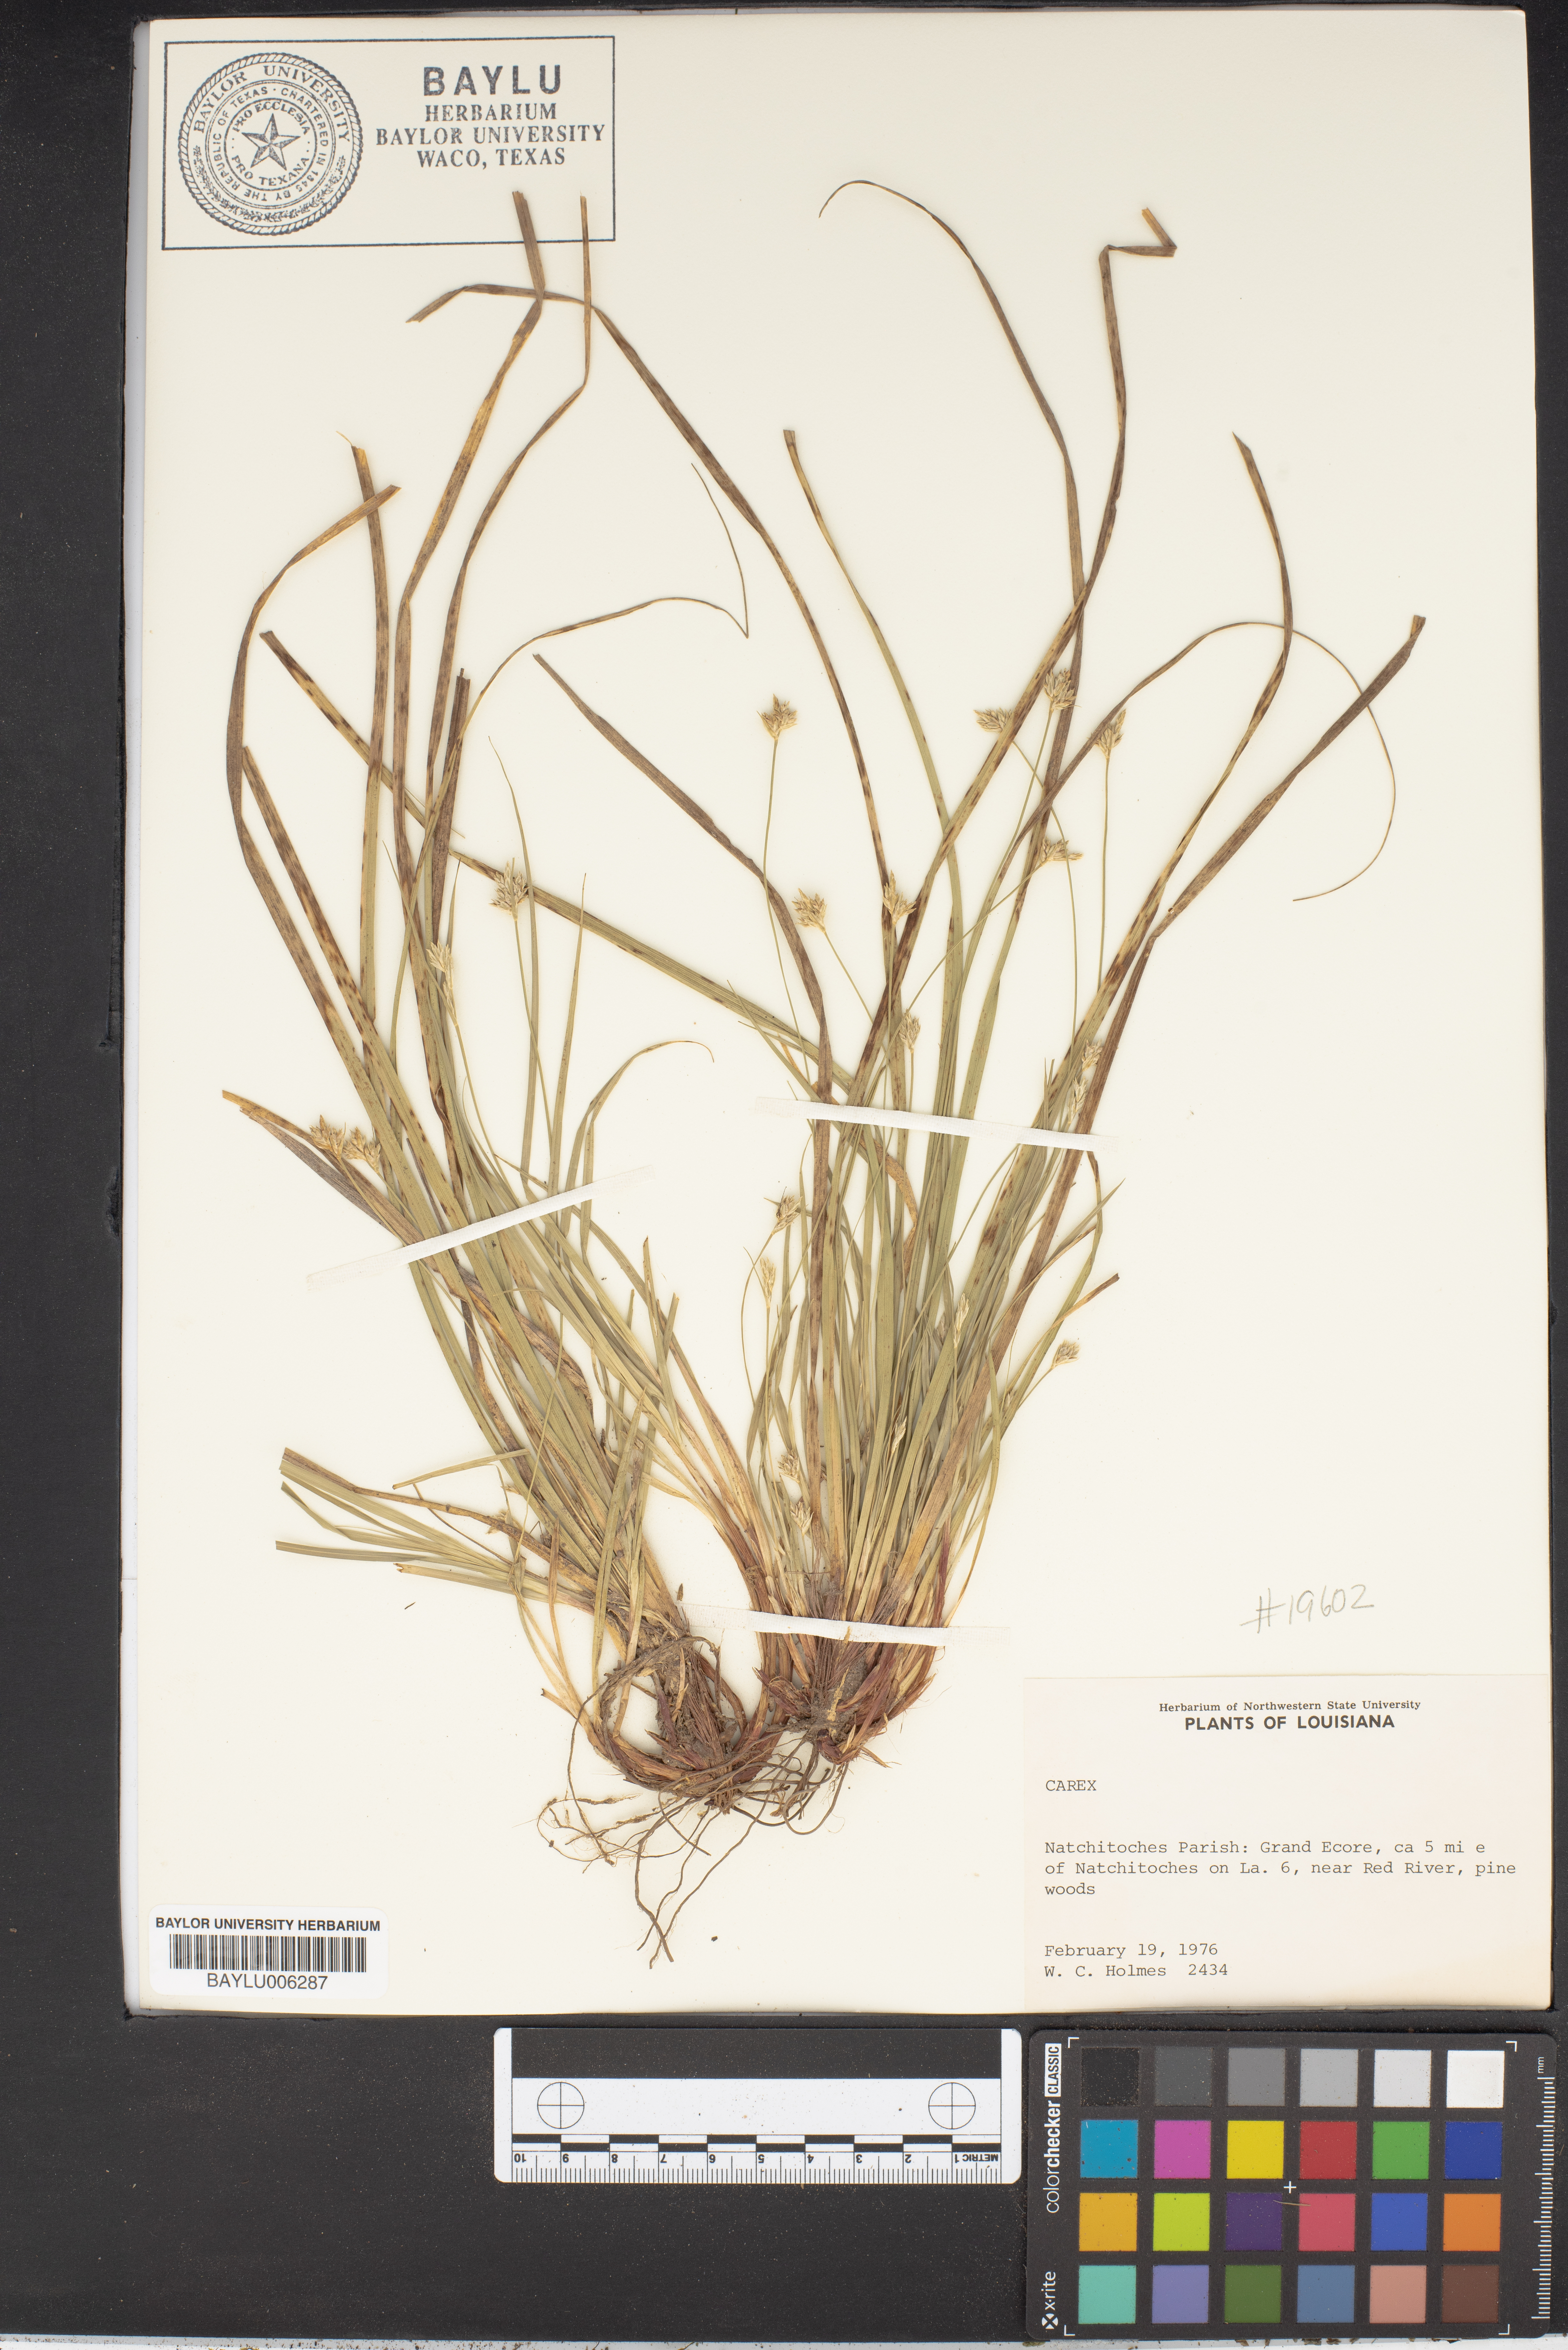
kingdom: Plantae
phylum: Tracheophyta
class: Liliopsida
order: Poales
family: Cyperaceae
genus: Carex
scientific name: Carex
